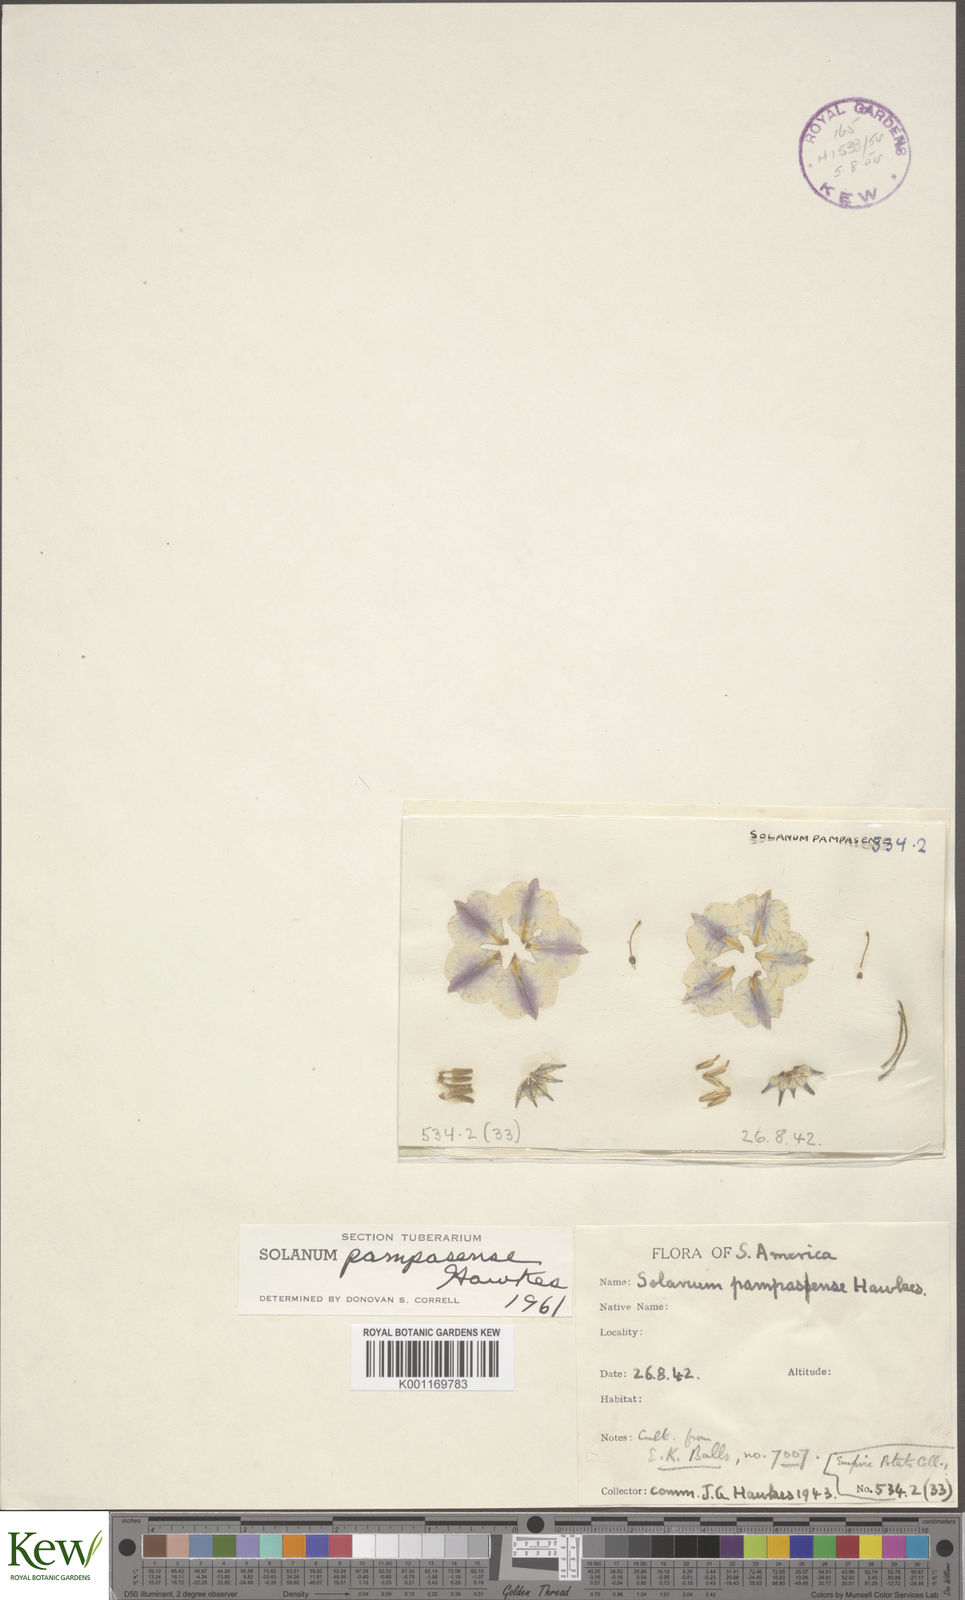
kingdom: Plantae
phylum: Tracheophyta
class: Magnoliopsida
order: Solanales
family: Solanaceae
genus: Solanum
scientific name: Solanum candolleanum
